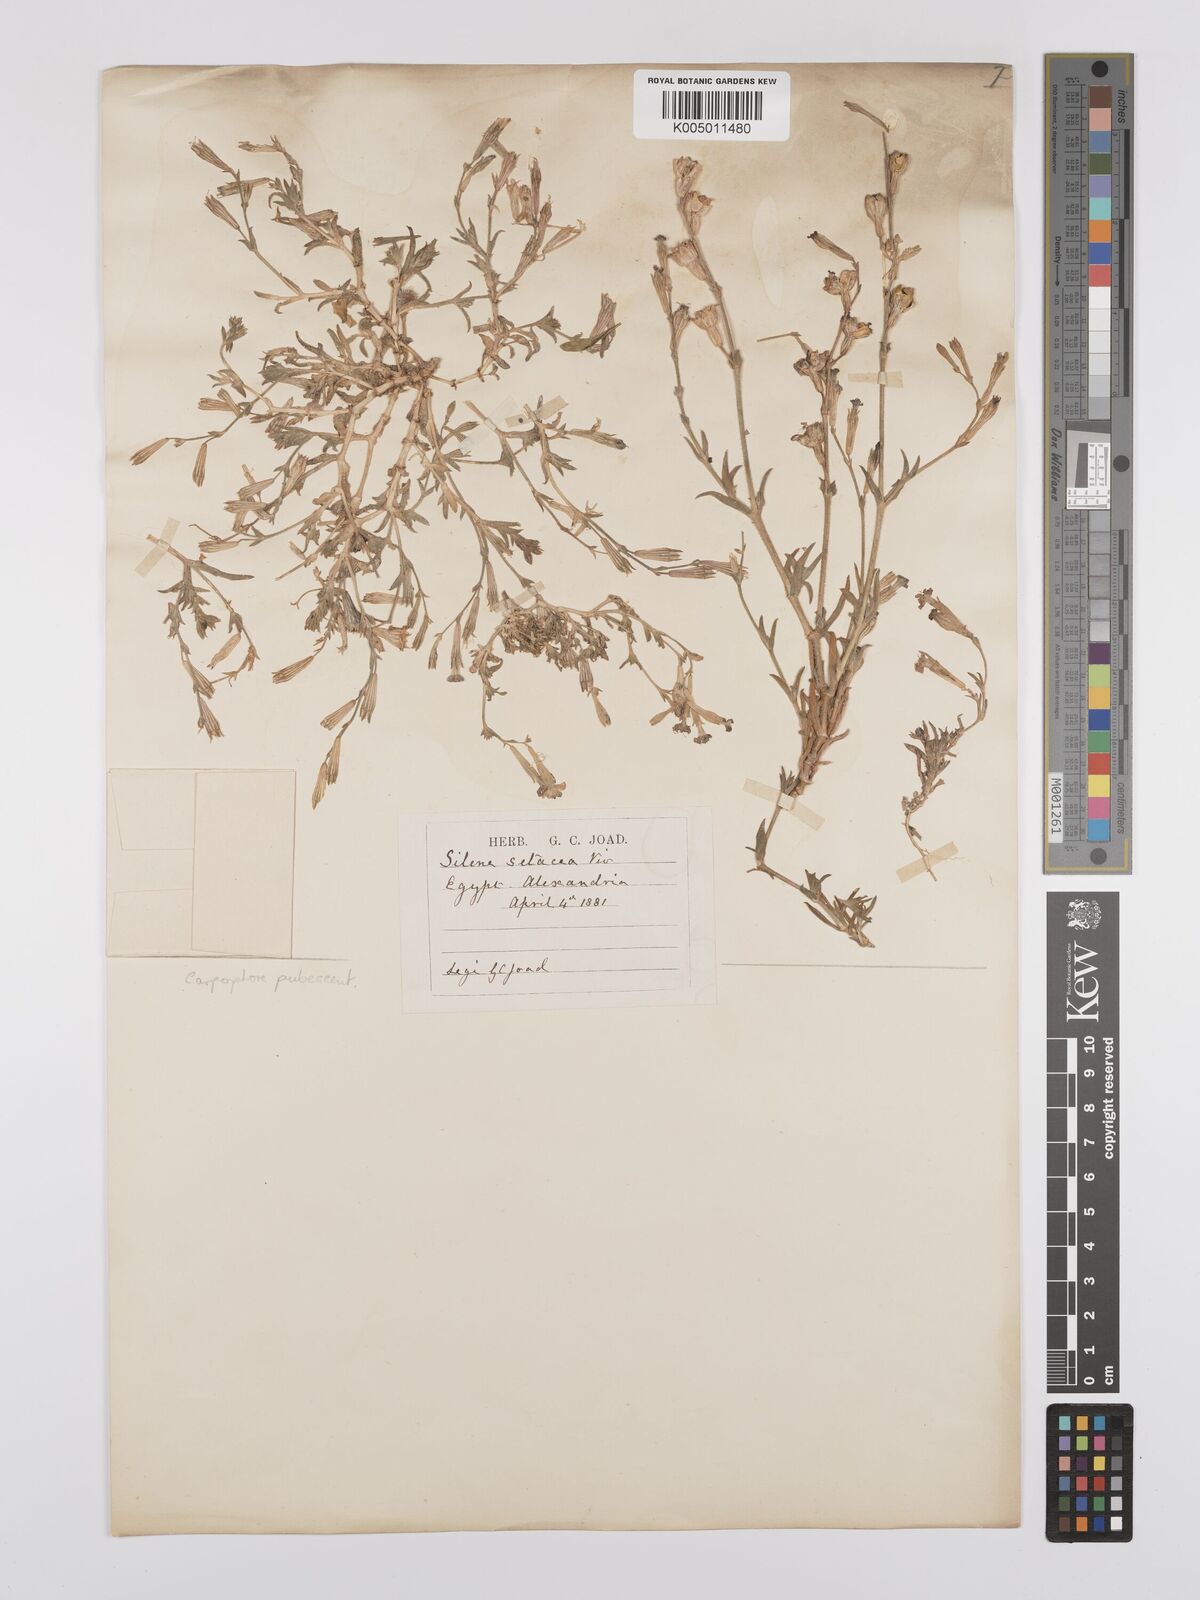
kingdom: Plantae
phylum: Tracheophyta
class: Magnoliopsida
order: Caryophyllales
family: Caryophyllaceae
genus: Silene
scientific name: Silene biappendiculata
